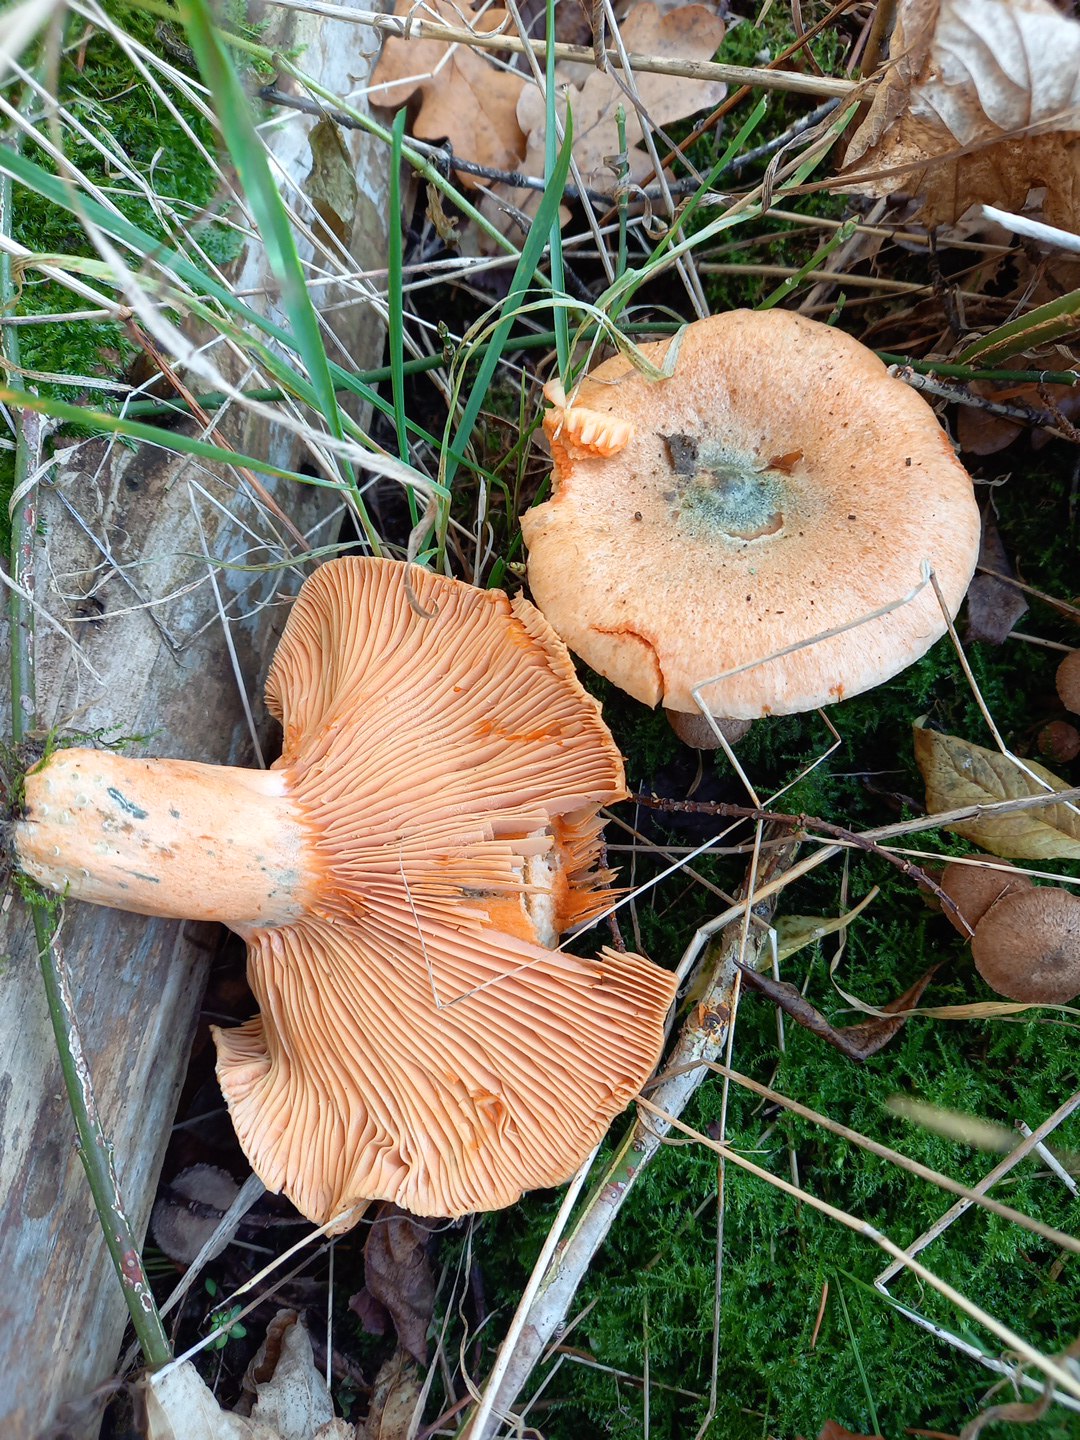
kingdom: Fungi
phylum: Basidiomycota
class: Agaricomycetes
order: Russulales
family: Russulaceae
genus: Lactarius
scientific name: Lactarius deterrimus
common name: gran-mælkehat
